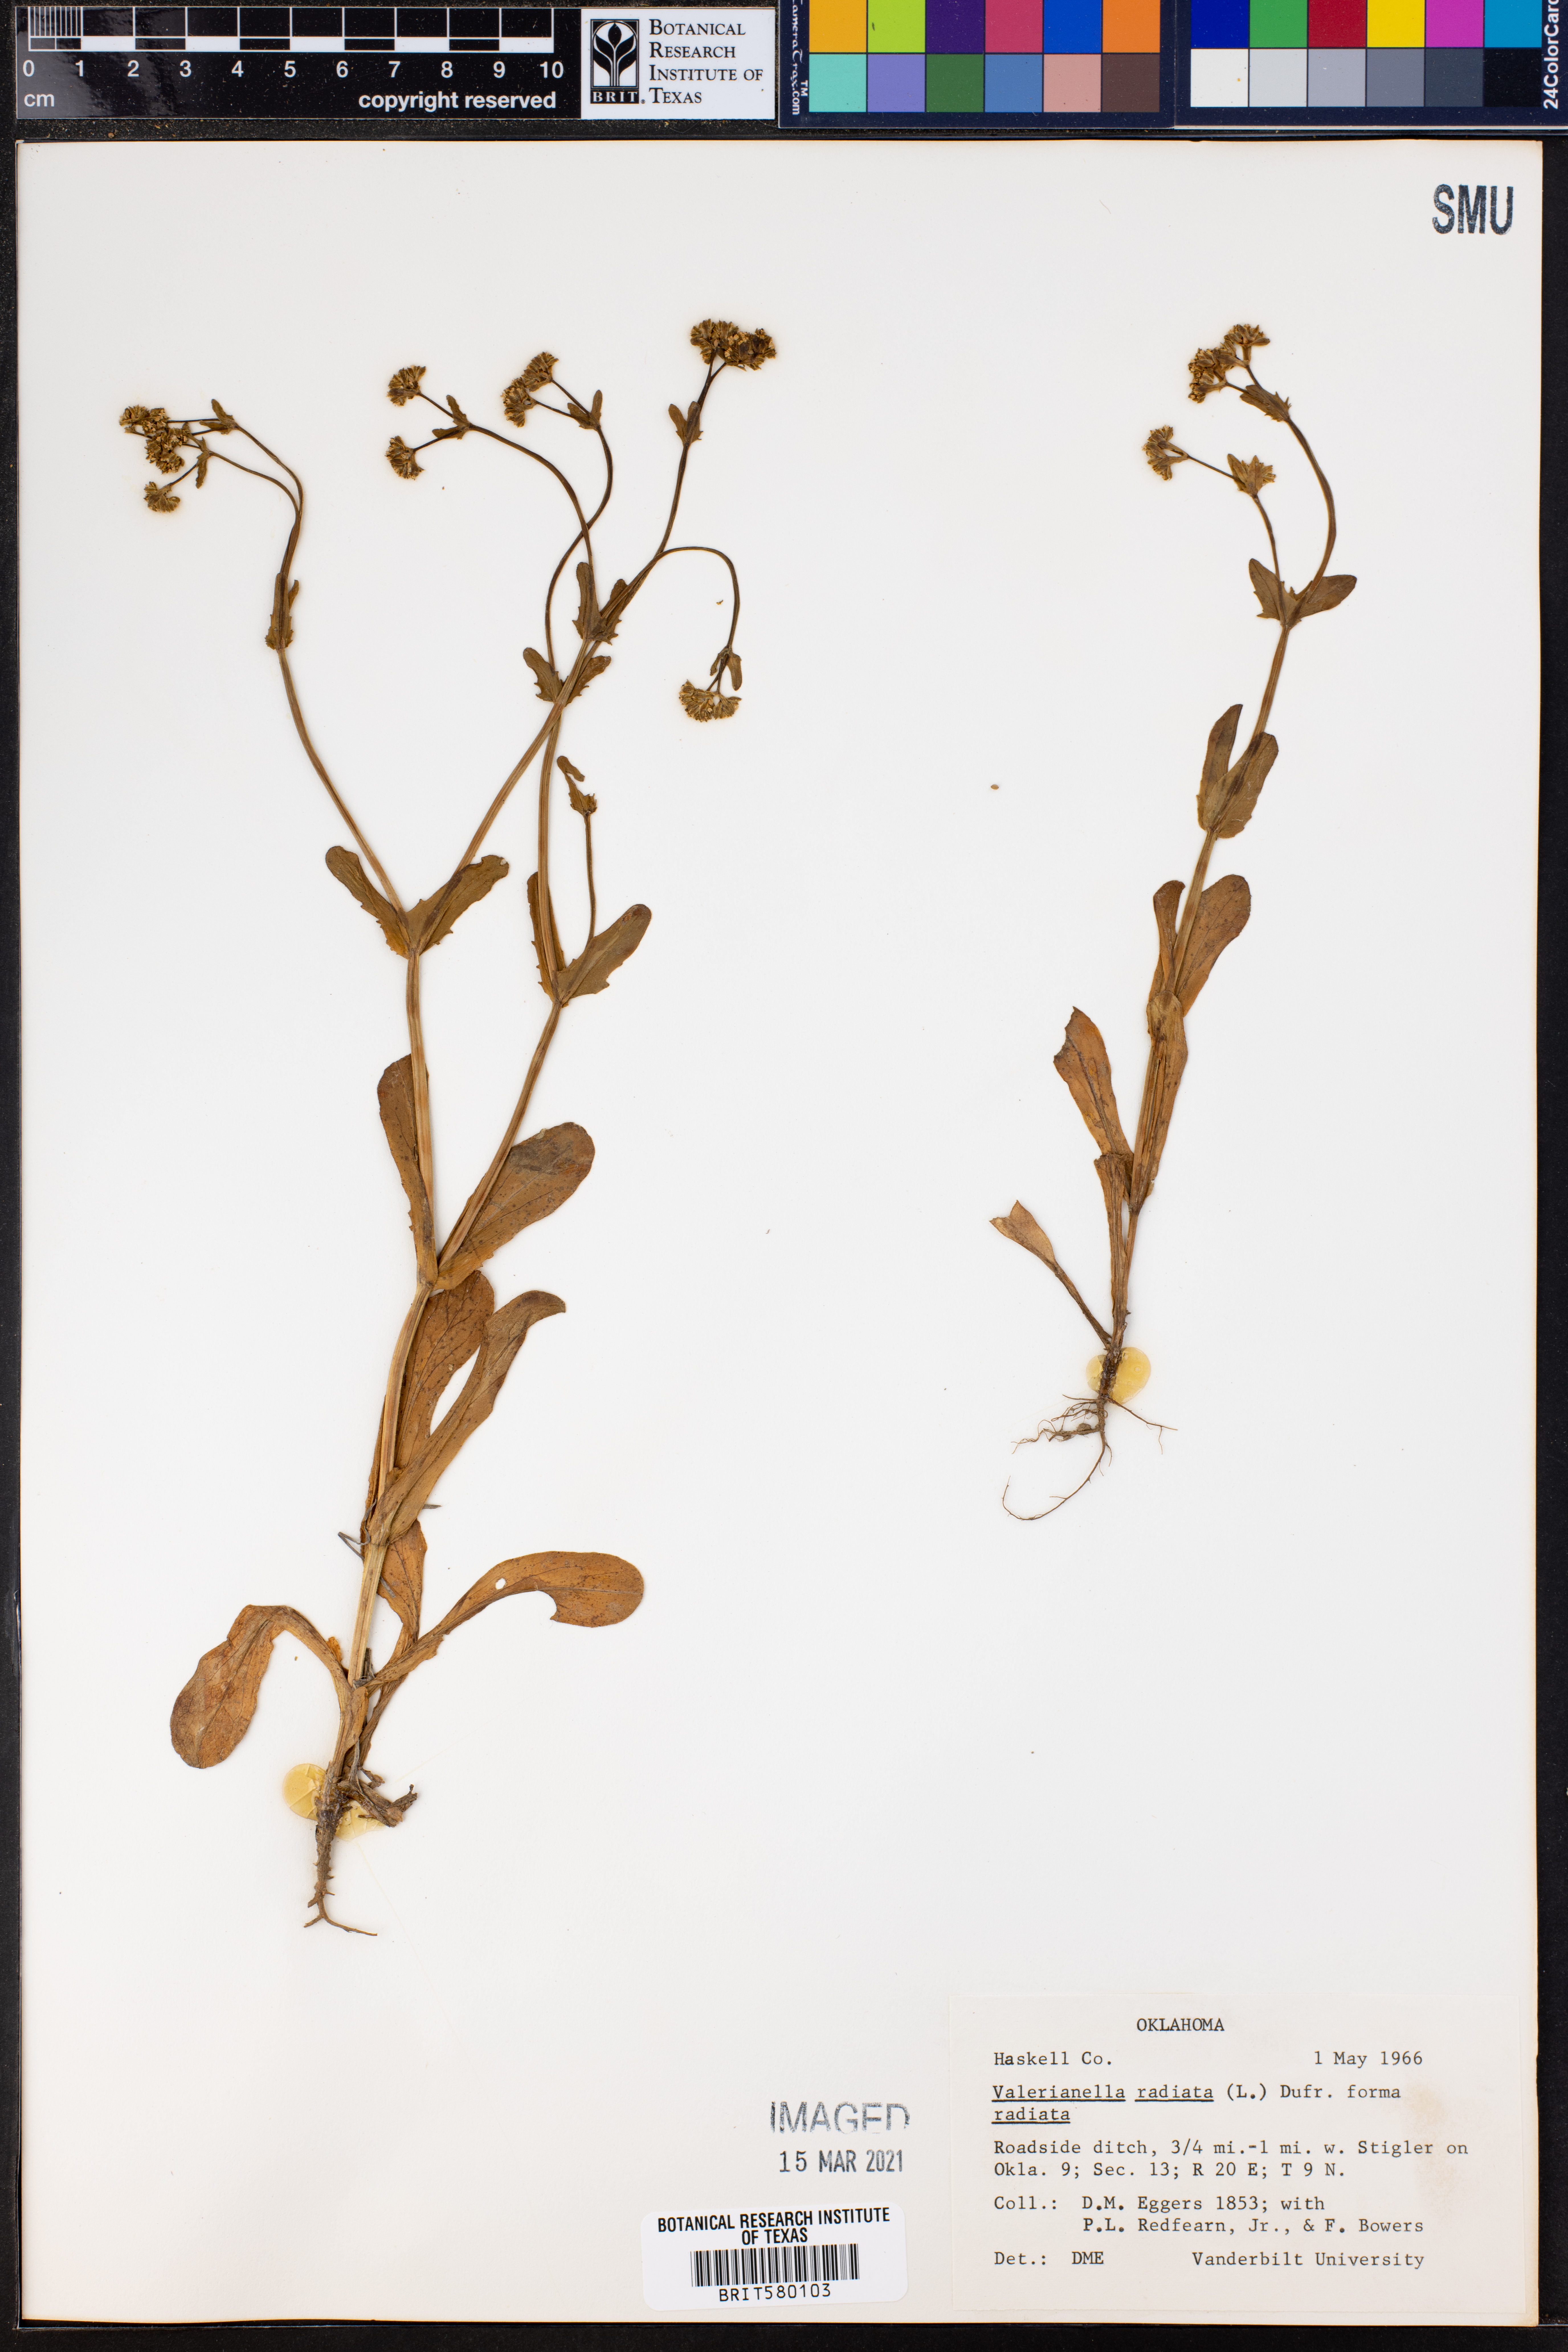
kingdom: Plantae
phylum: Tracheophyta
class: Magnoliopsida
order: Dipsacales
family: Caprifoliaceae
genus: Valerianella
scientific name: Valerianella radiata
